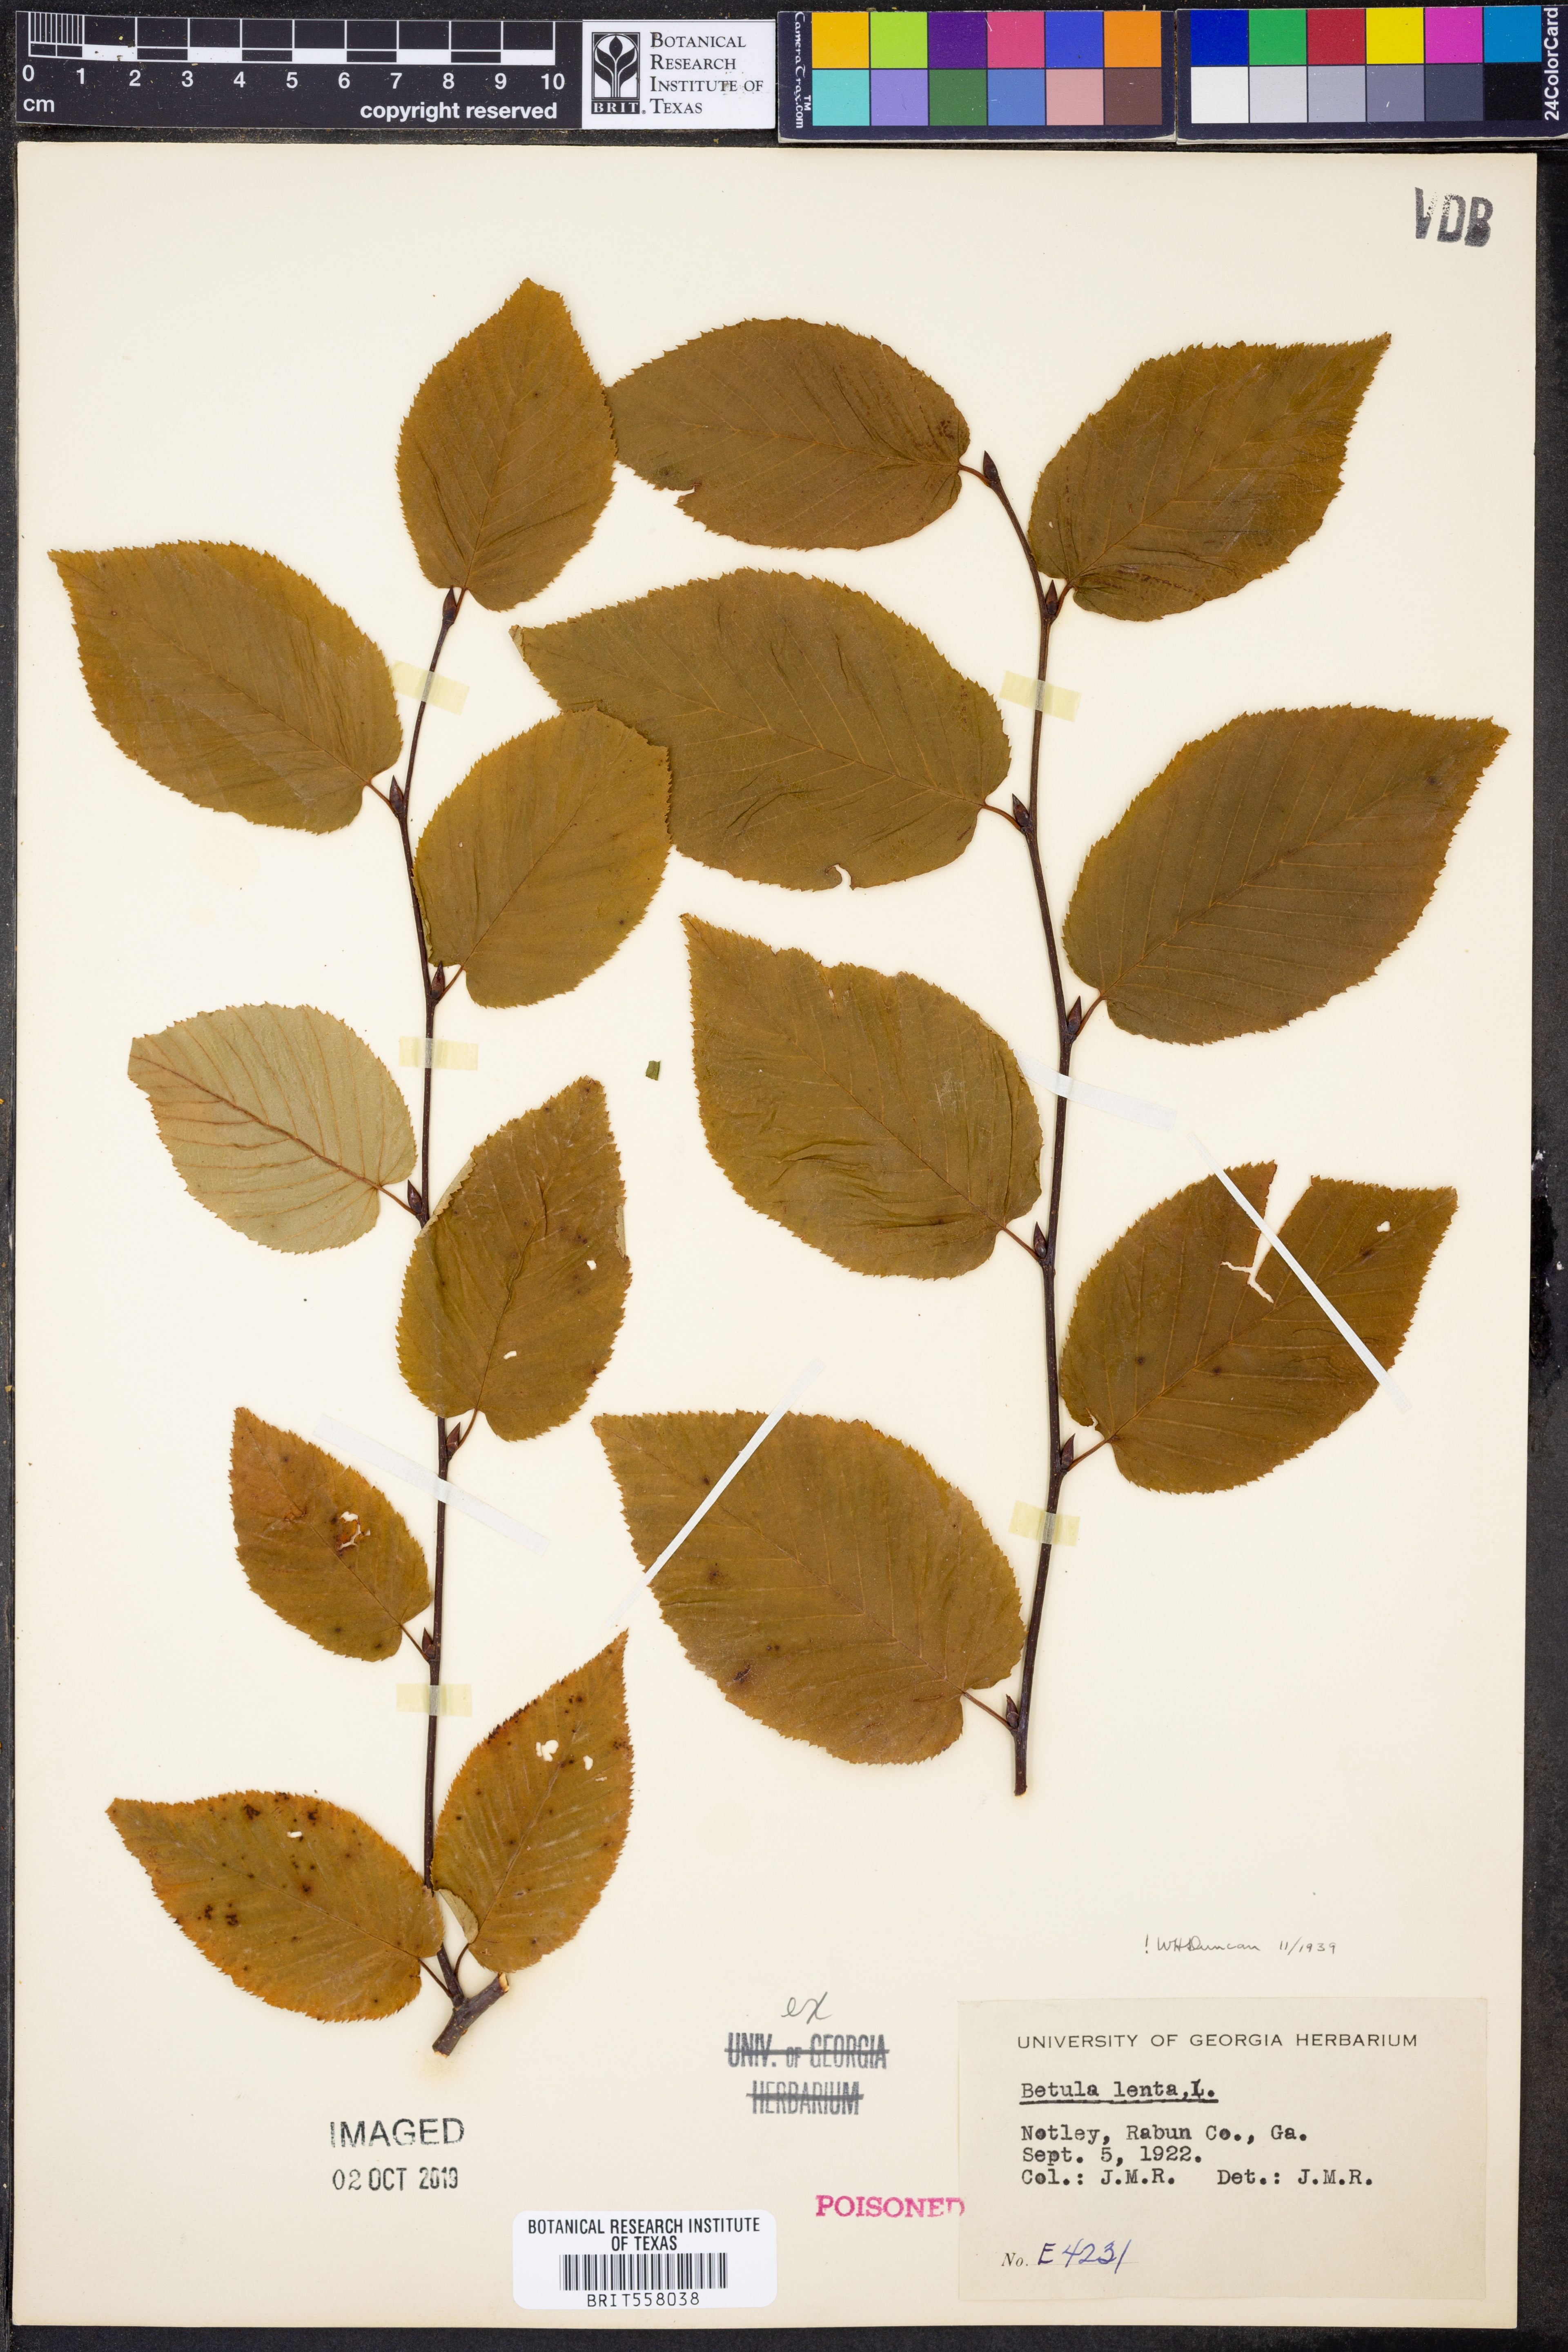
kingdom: Plantae
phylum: Tracheophyta
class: Magnoliopsida
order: Fagales
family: Betulaceae
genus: Betula
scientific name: Betula lenta
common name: Black birch
